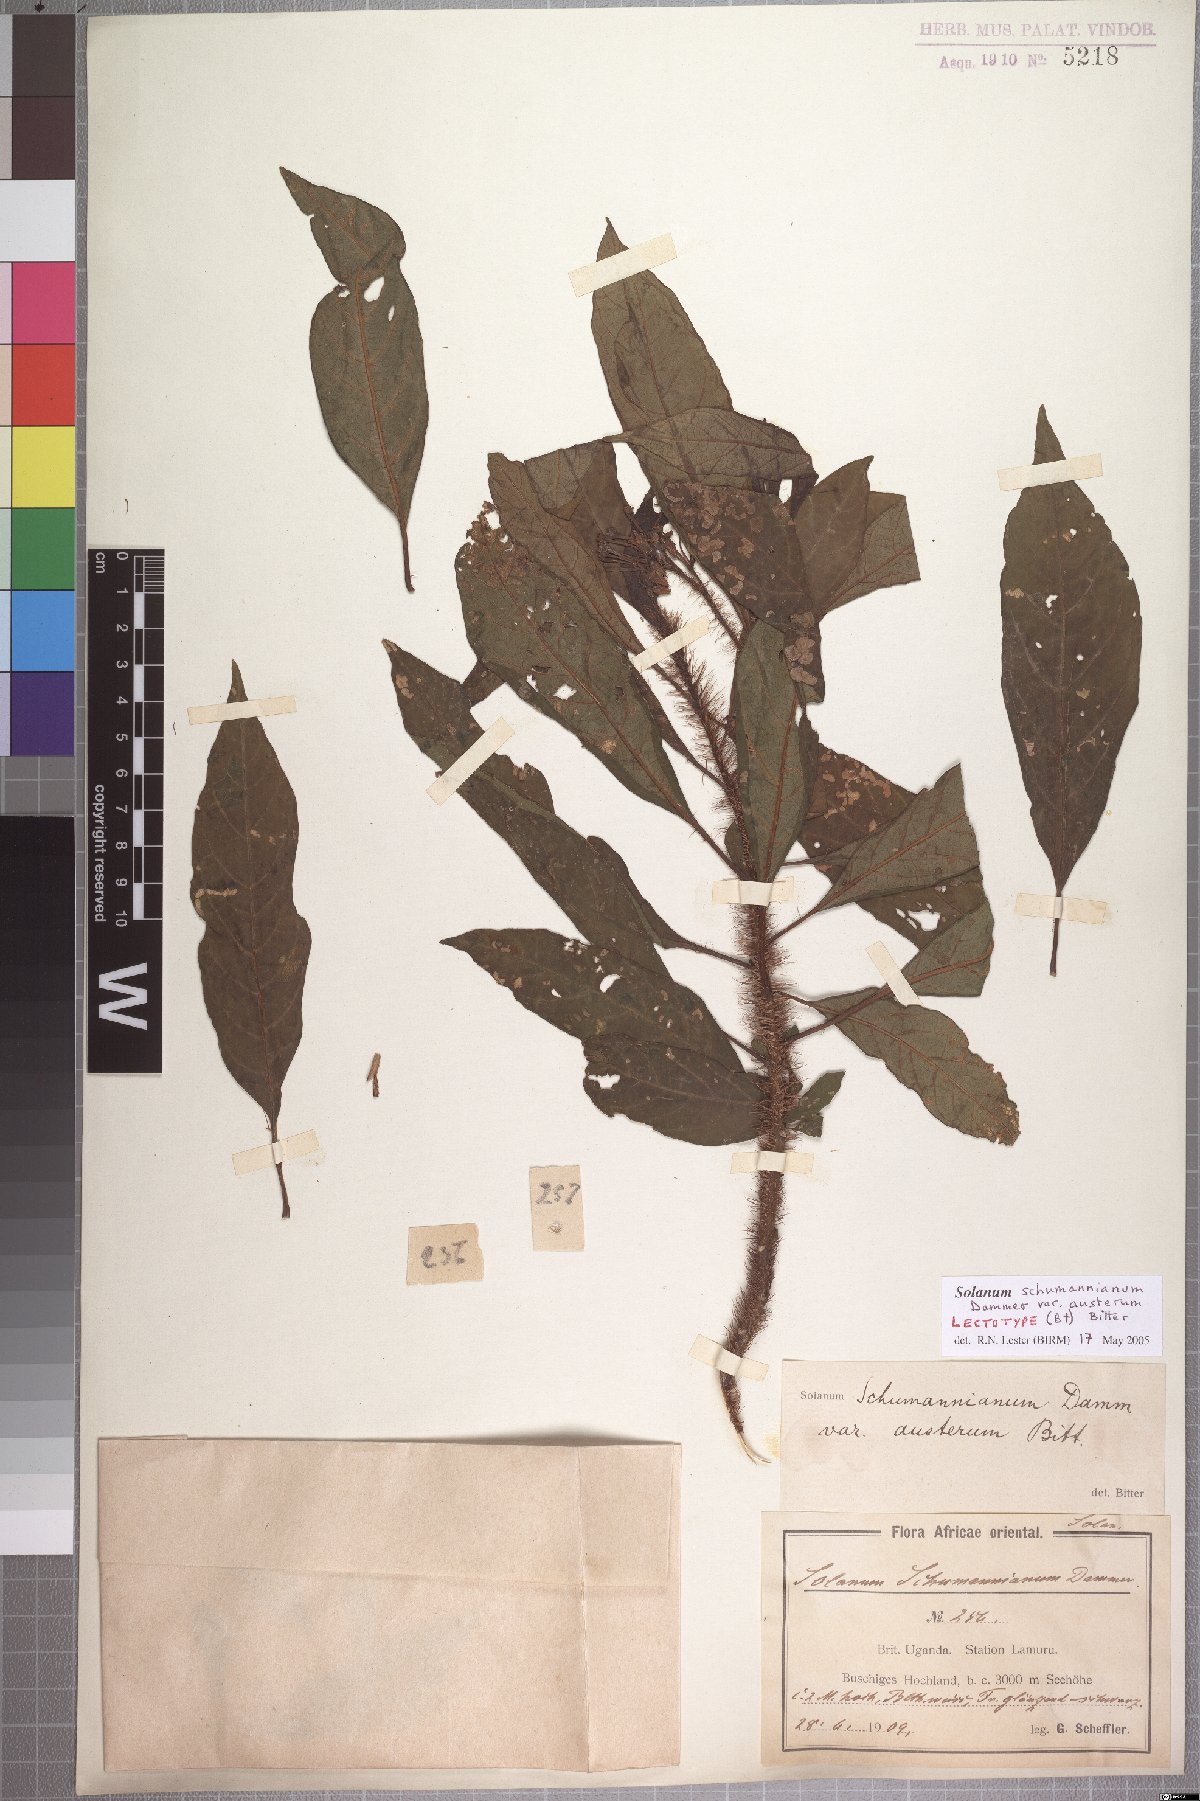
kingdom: Plantae
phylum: Tracheophyta
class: Magnoliopsida
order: Solanales
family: Solanaceae
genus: Solanum
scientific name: Solanum schumannianum
